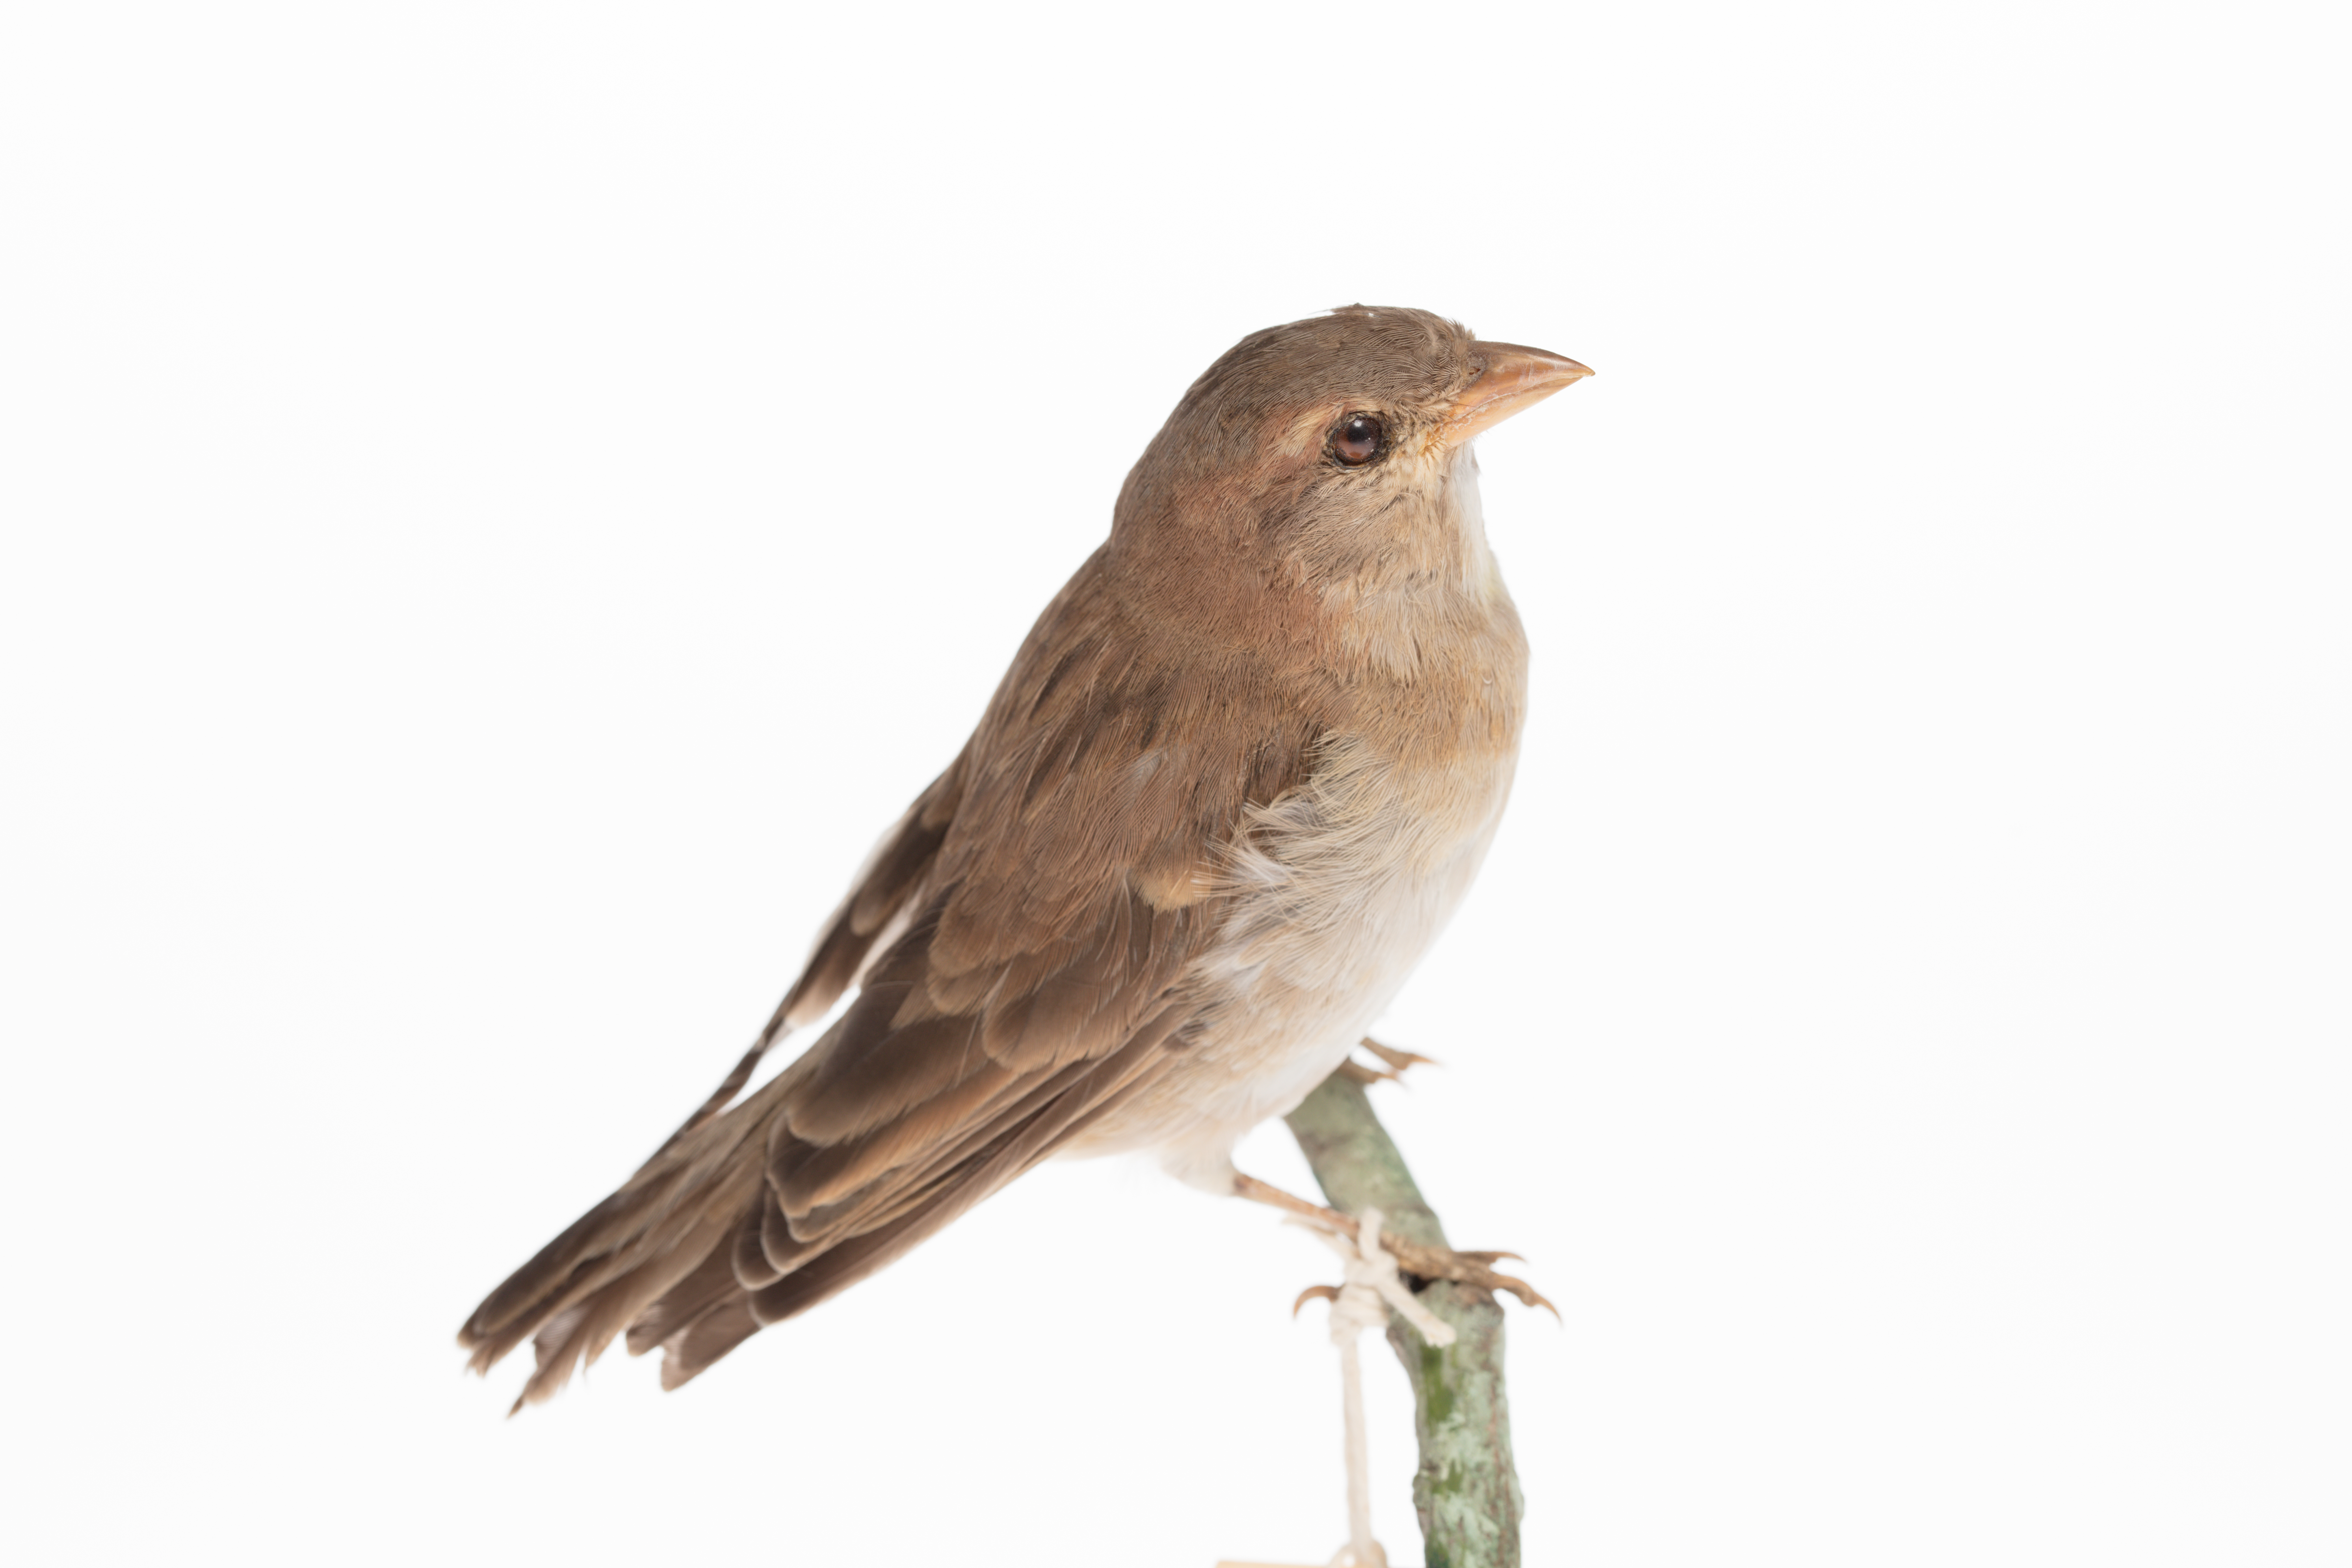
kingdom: Animalia
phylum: Chordata
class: Aves
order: Passeriformes
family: Passeridae
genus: Gymnoris
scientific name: Gymnoris superciliaris
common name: Yellow-throated petronia
